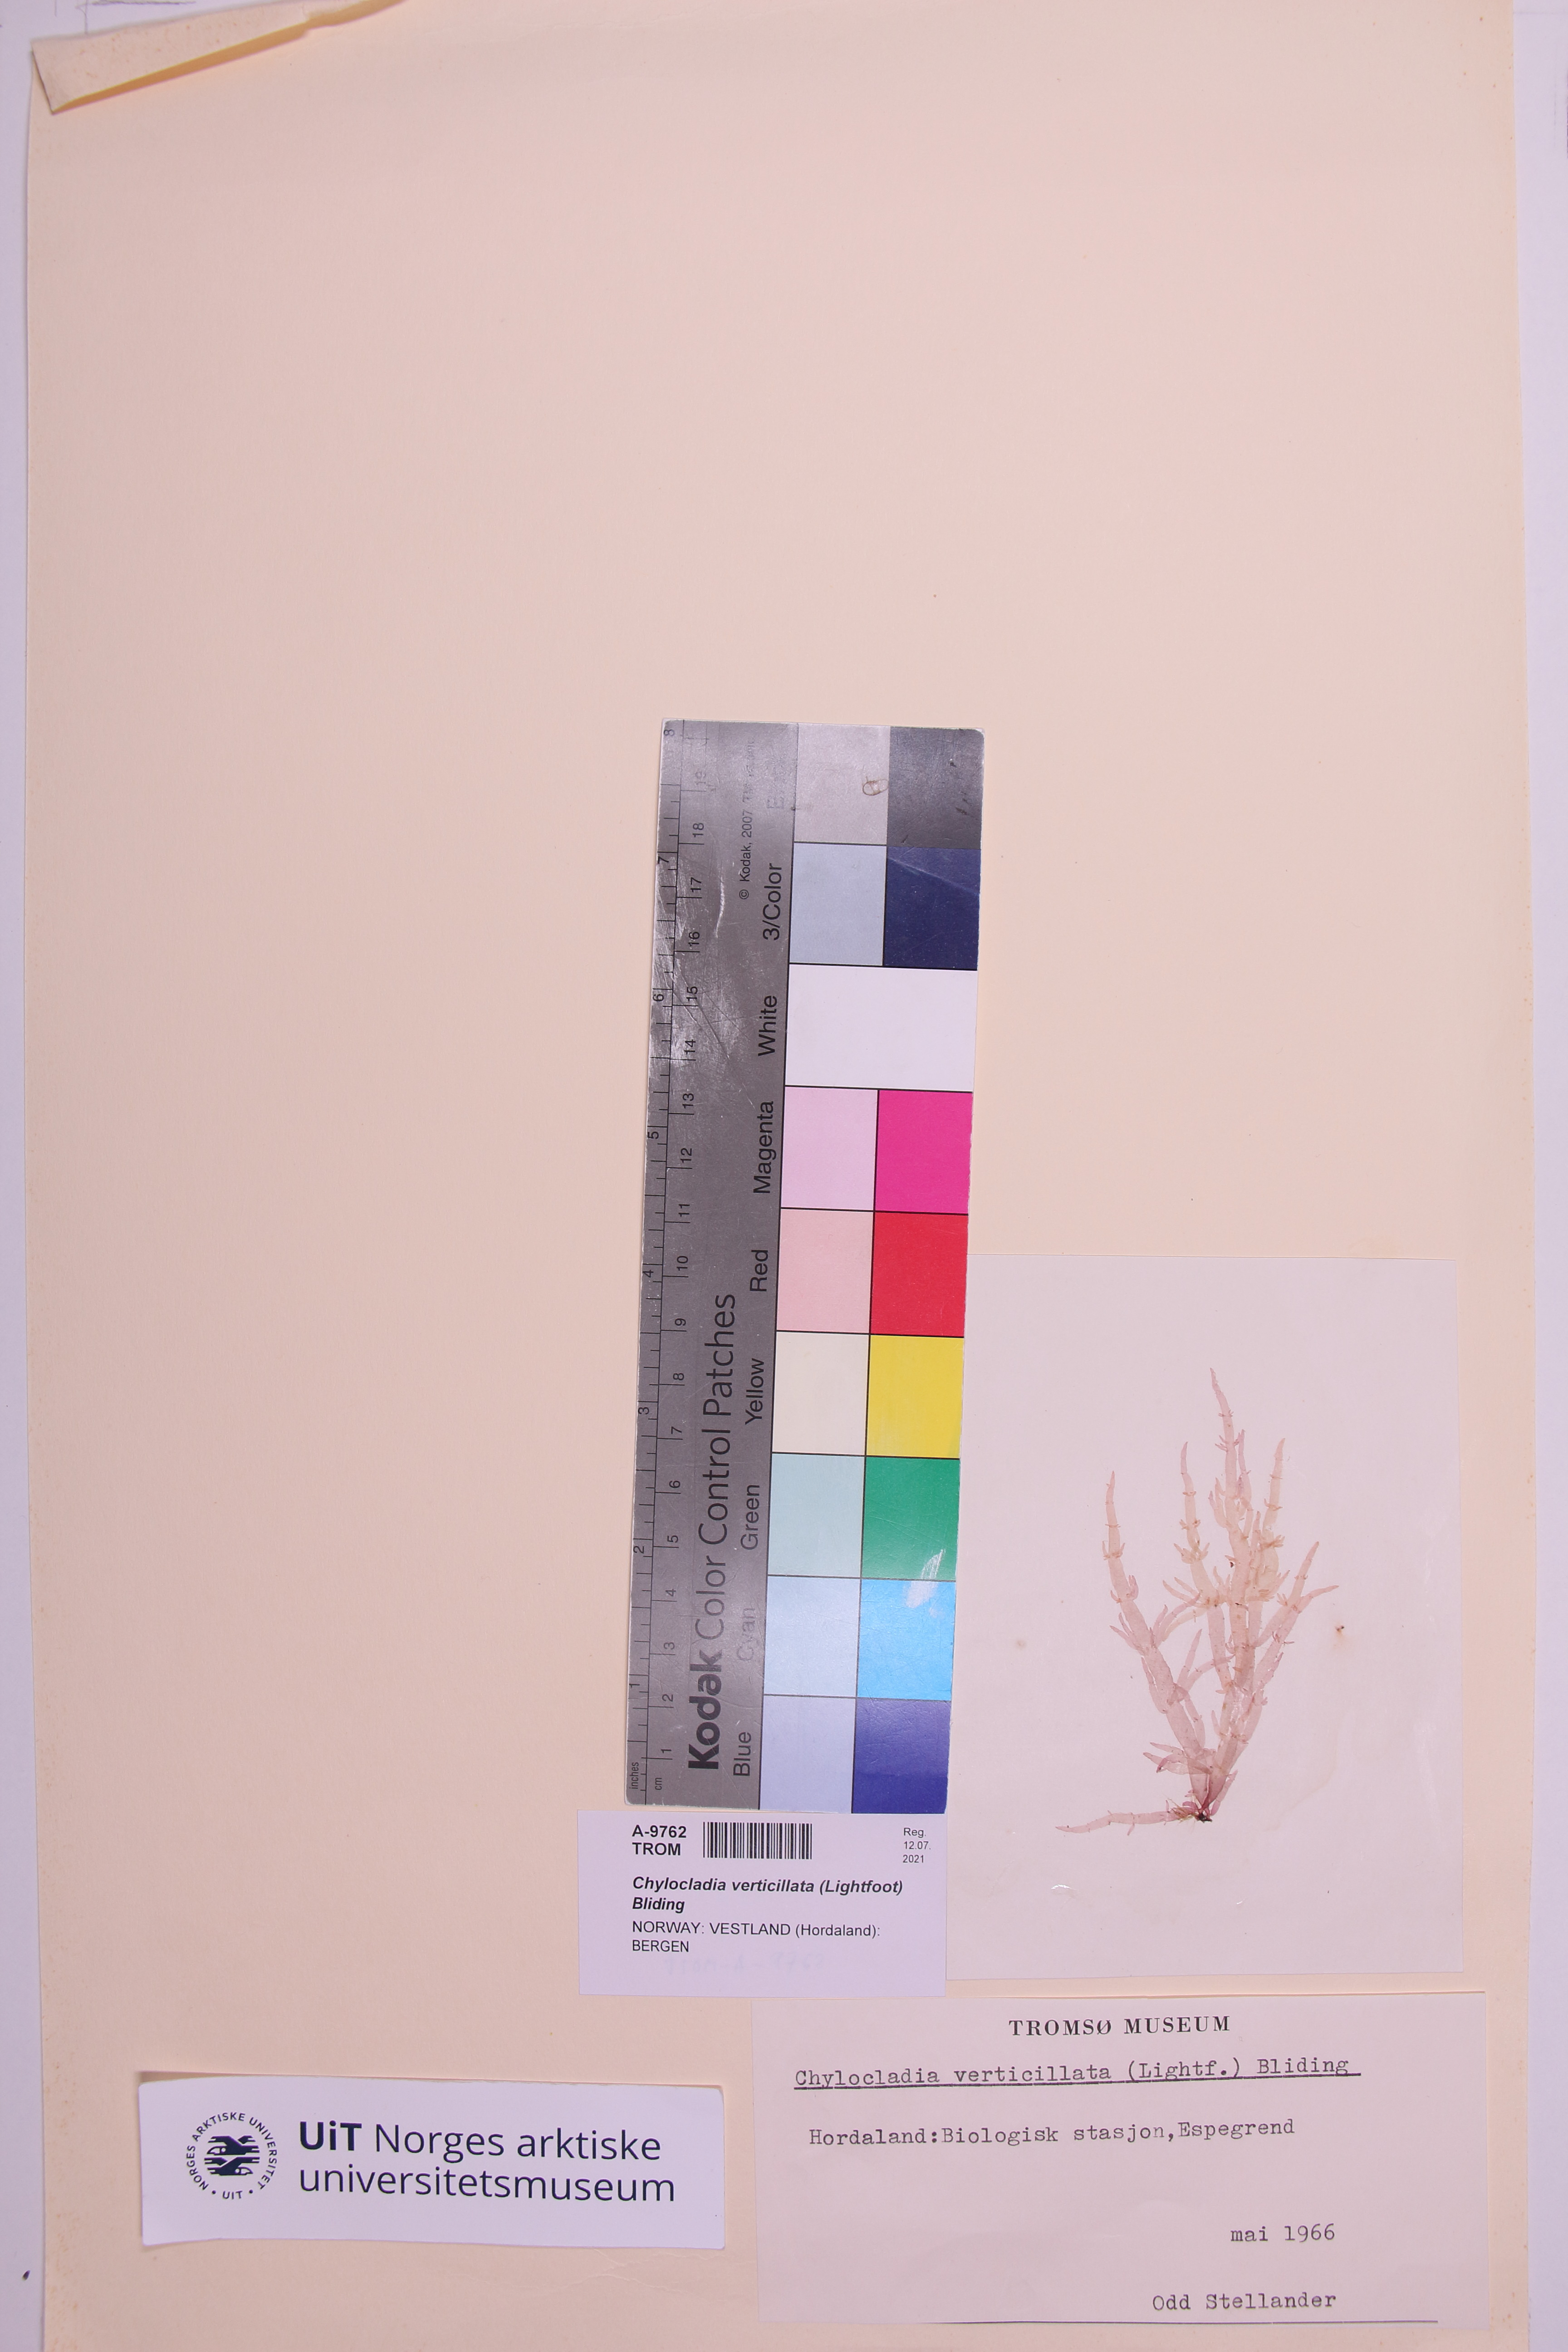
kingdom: Plantae
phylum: Rhodophyta
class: Florideophyceae
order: Rhodymeniales
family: Champiaceae
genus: Chylocladia
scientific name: Chylocladia verticillata
